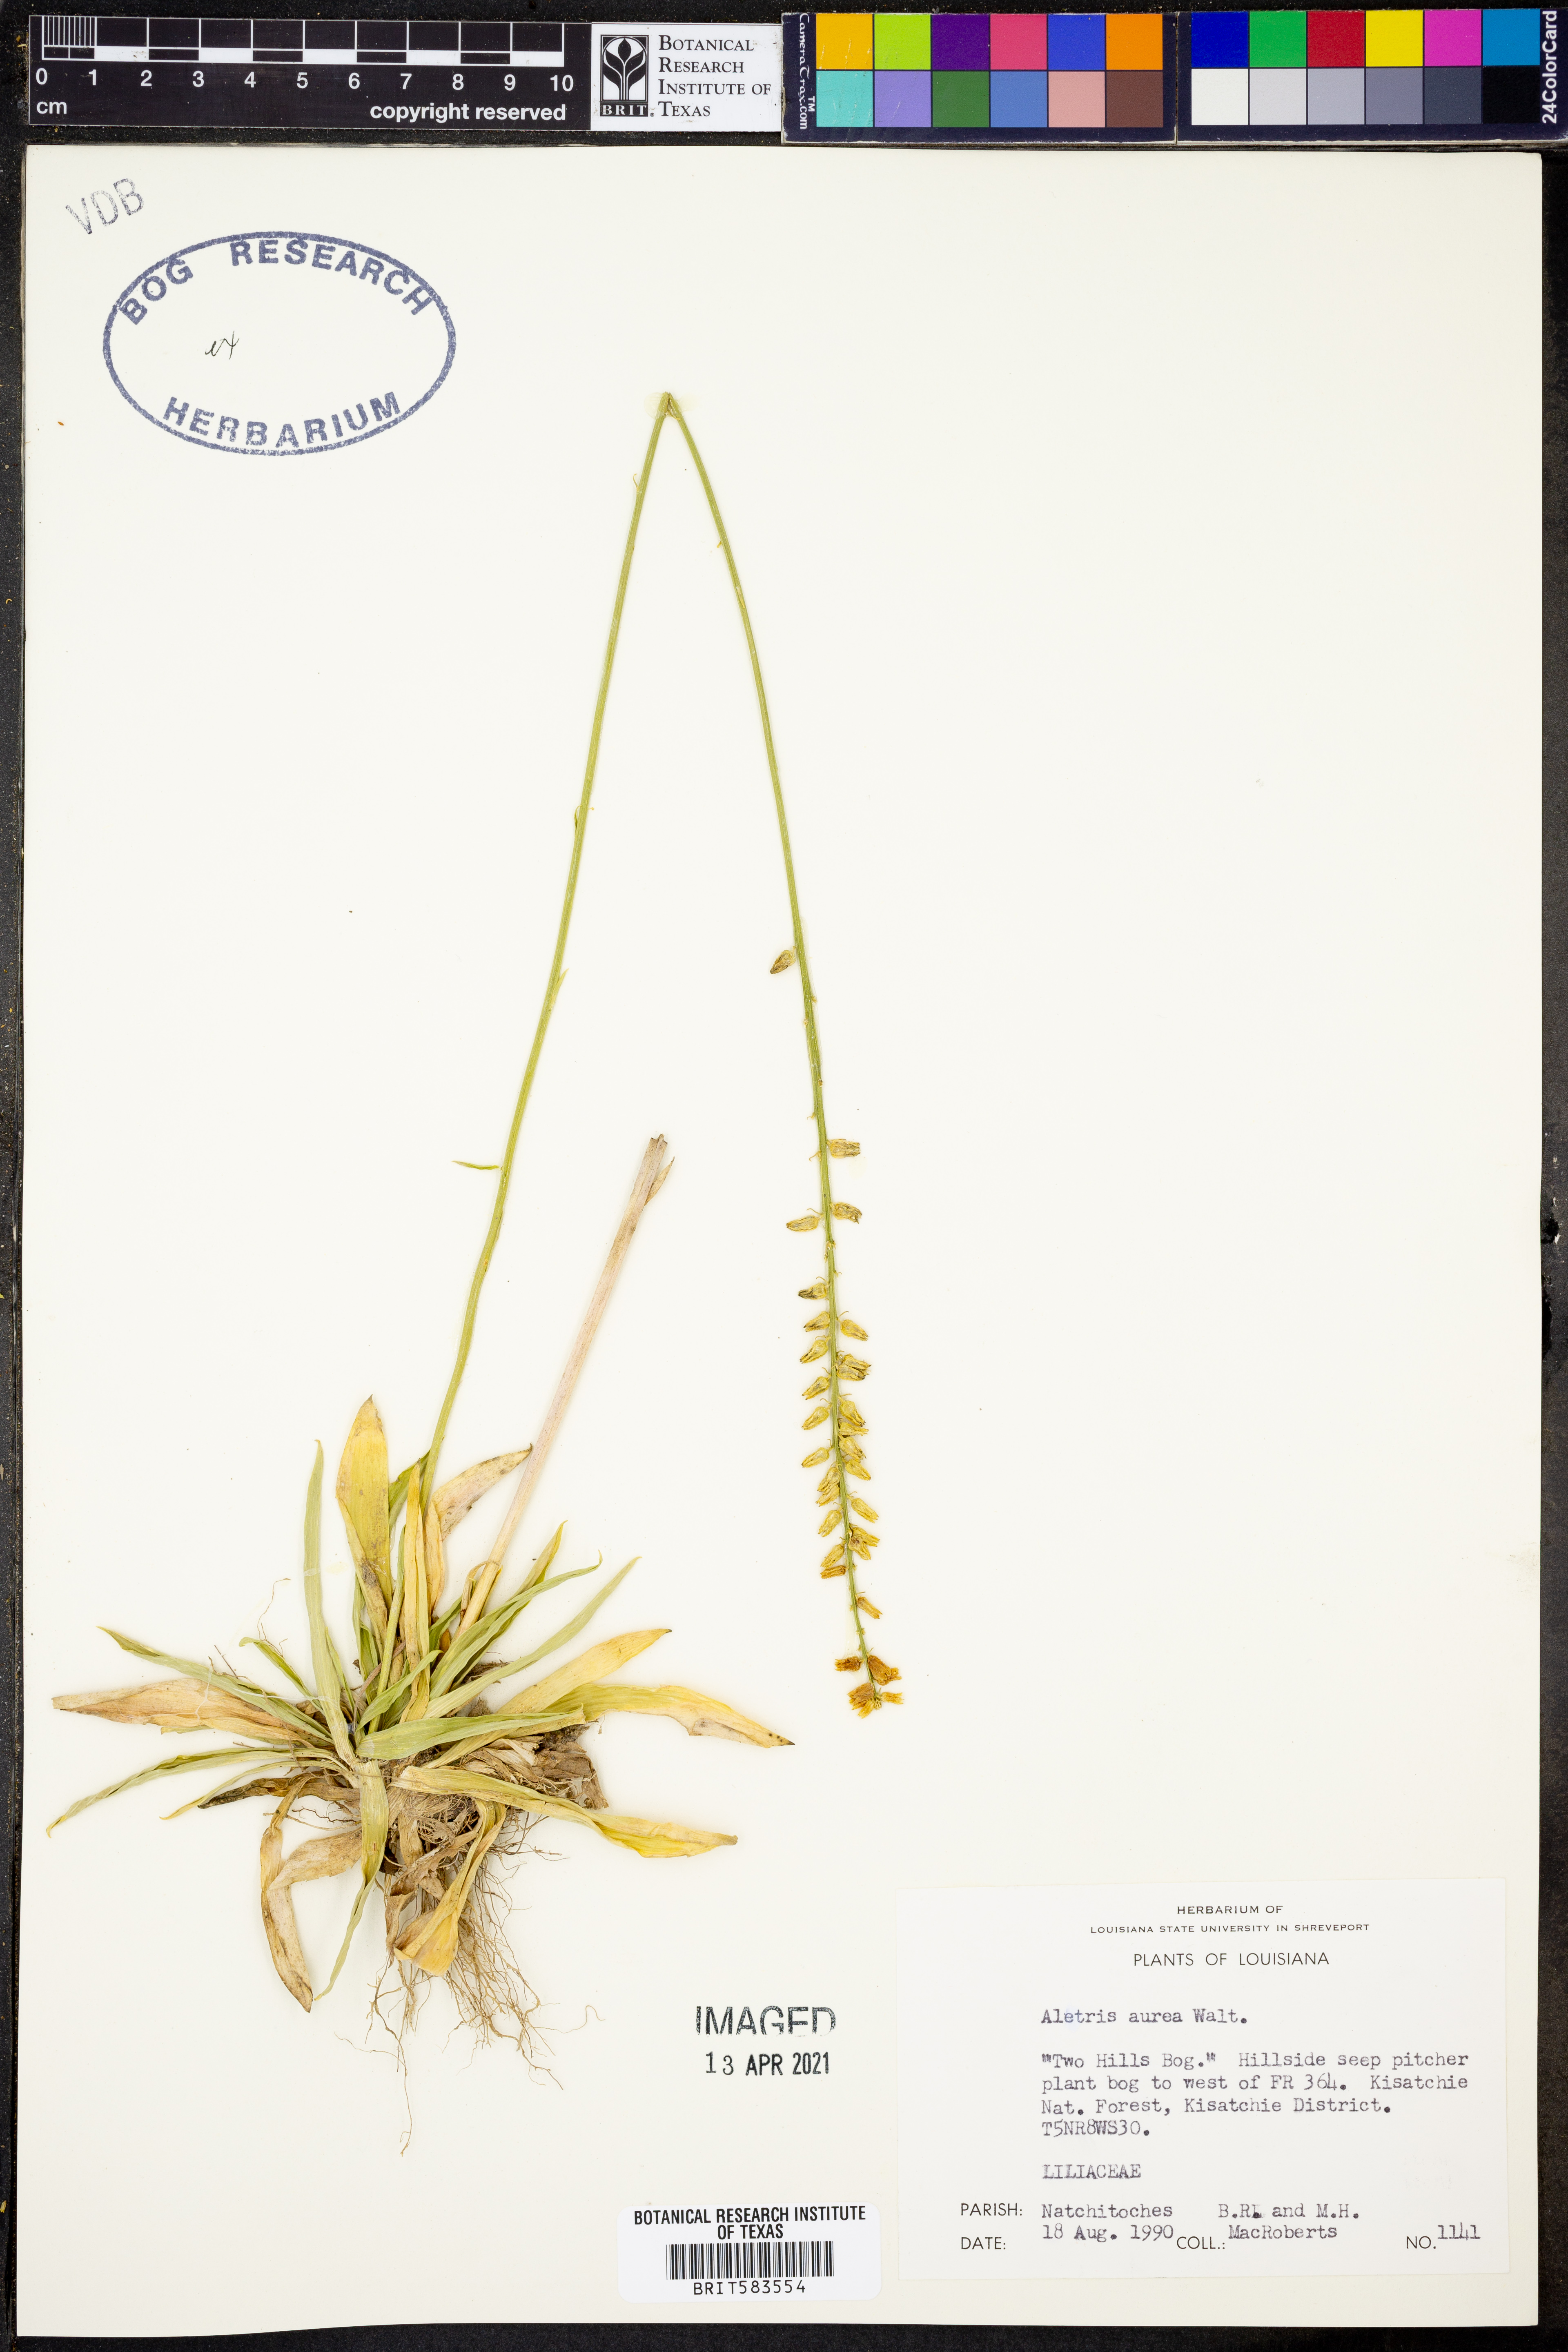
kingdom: Plantae
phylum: Tracheophyta
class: Liliopsida
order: Dioscoreales
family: Nartheciaceae
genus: Aletris
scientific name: Aletris aurea
